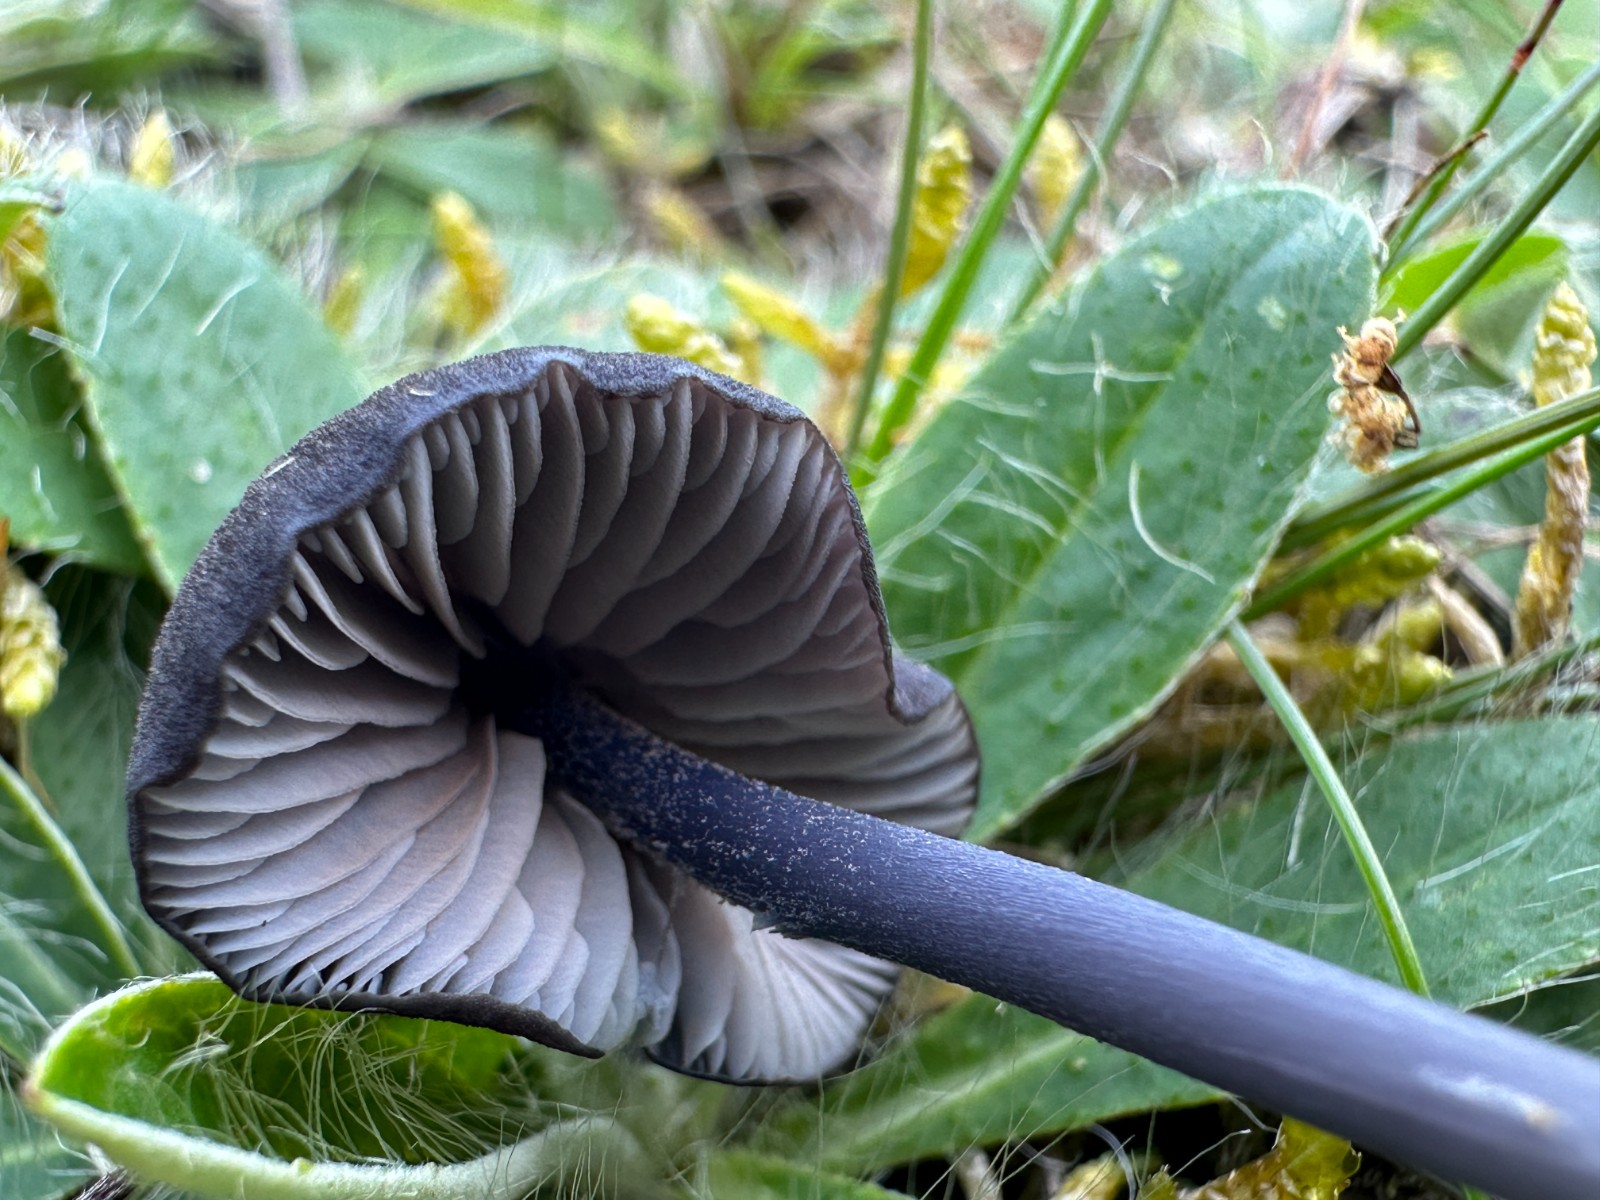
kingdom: Fungi
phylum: Basidiomycota
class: Agaricomycetes
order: Agaricales
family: Entolomataceae
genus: Entoloma
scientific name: Entoloma chalybeum
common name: blåbladet rødblad
